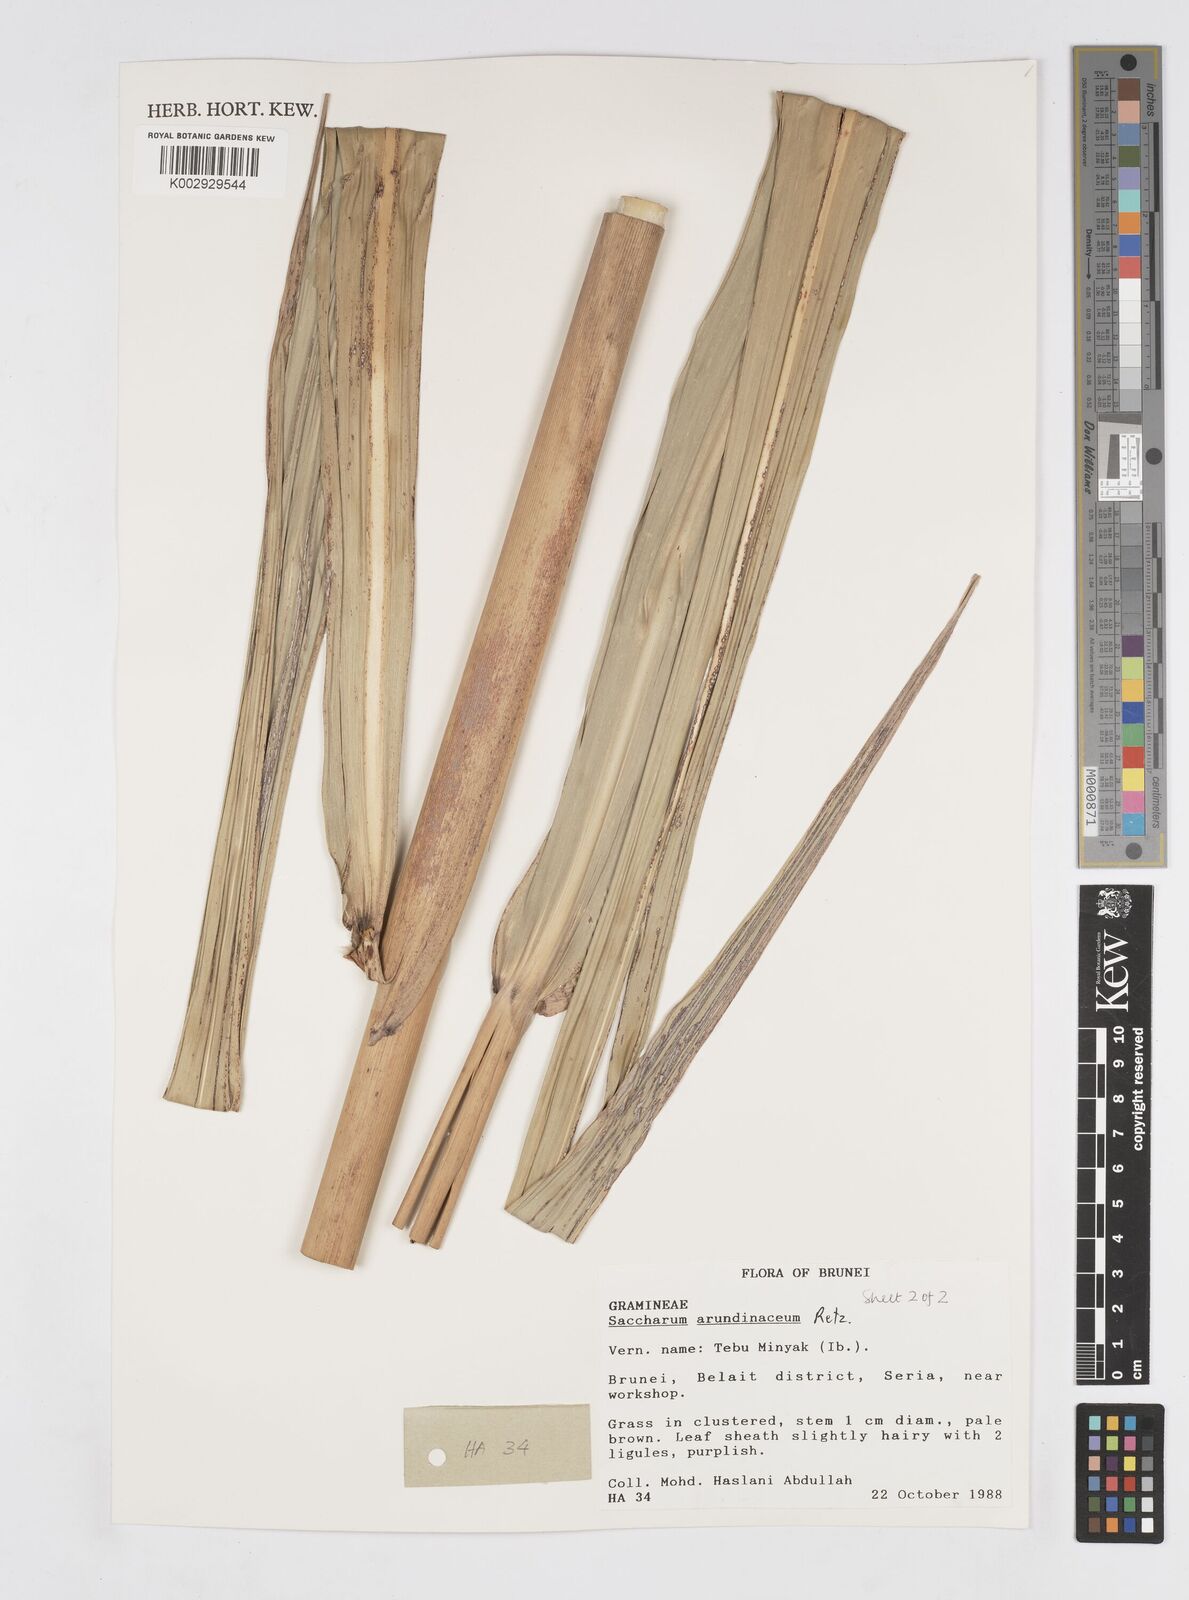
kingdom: Plantae
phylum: Tracheophyta
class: Liliopsida
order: Poales
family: Poaceae
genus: Tripidium
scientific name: Tripidium arundinaceum
